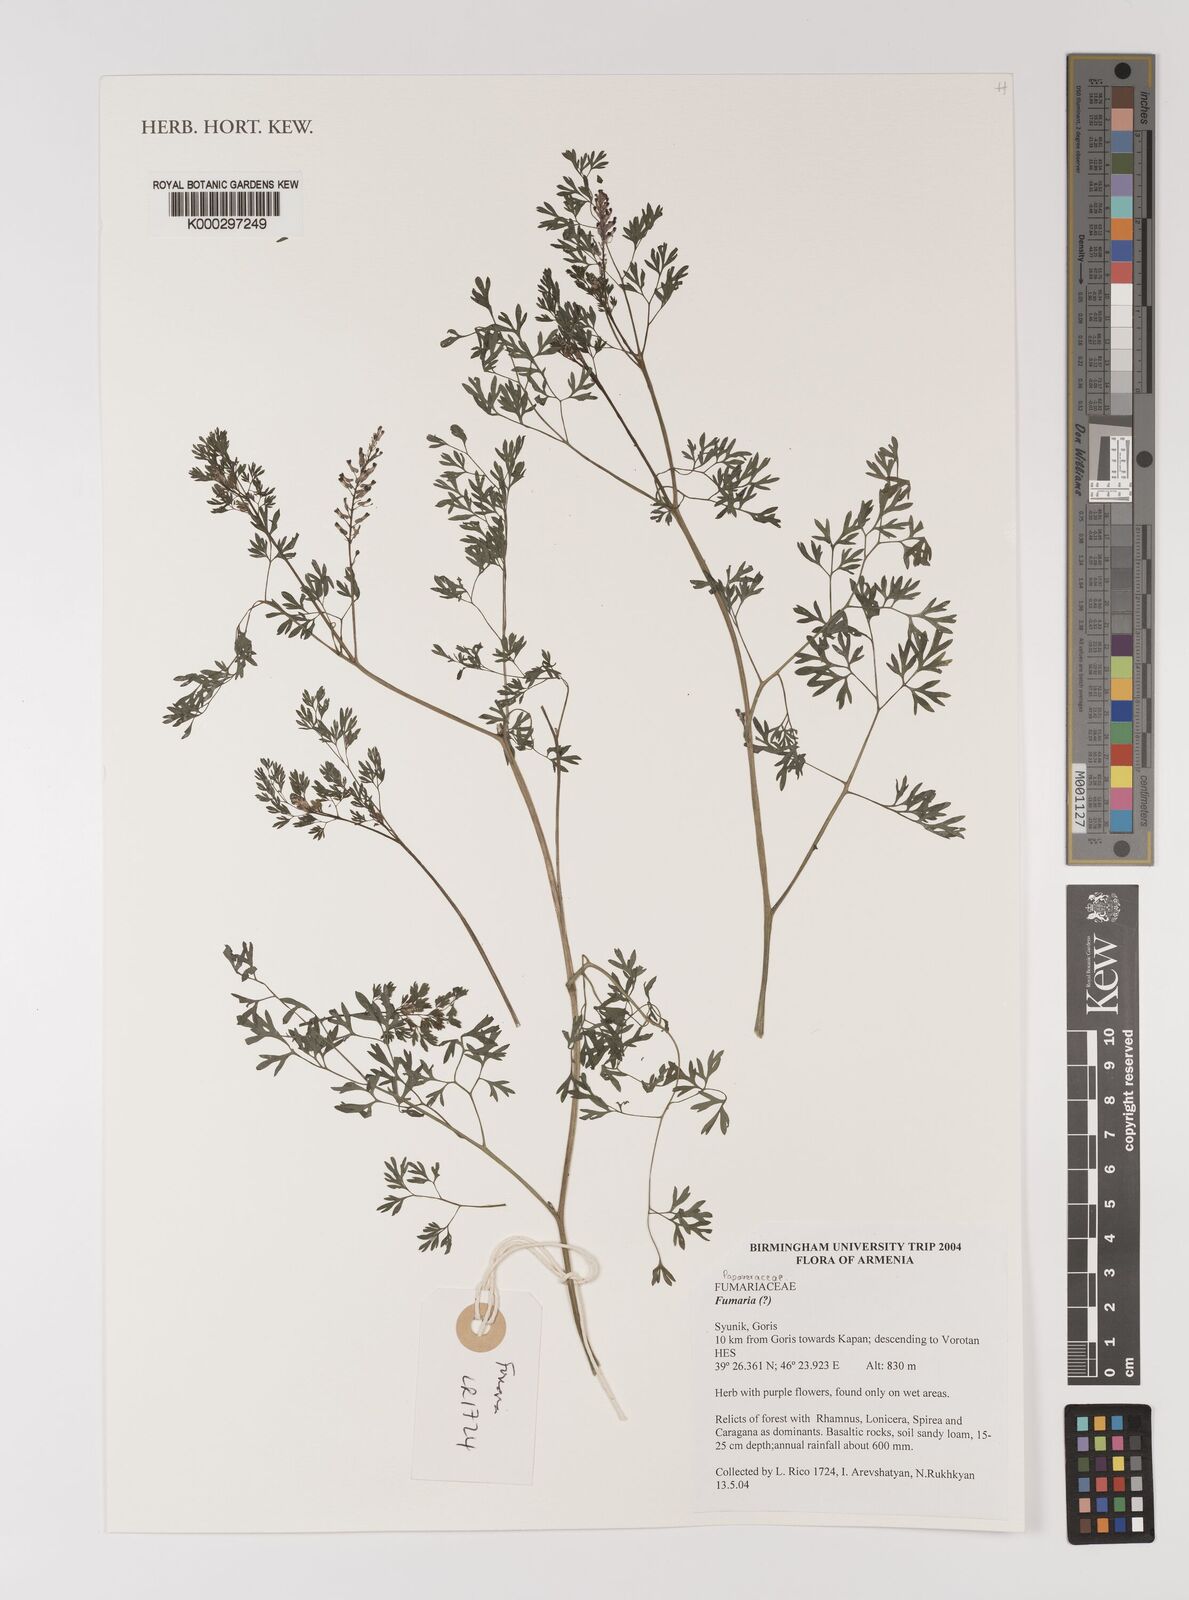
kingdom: Plantae
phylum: Tracheophyta
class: Magnoliopsida
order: Ranunculales
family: Papaveraceae
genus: Fumaria
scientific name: Fumaria
